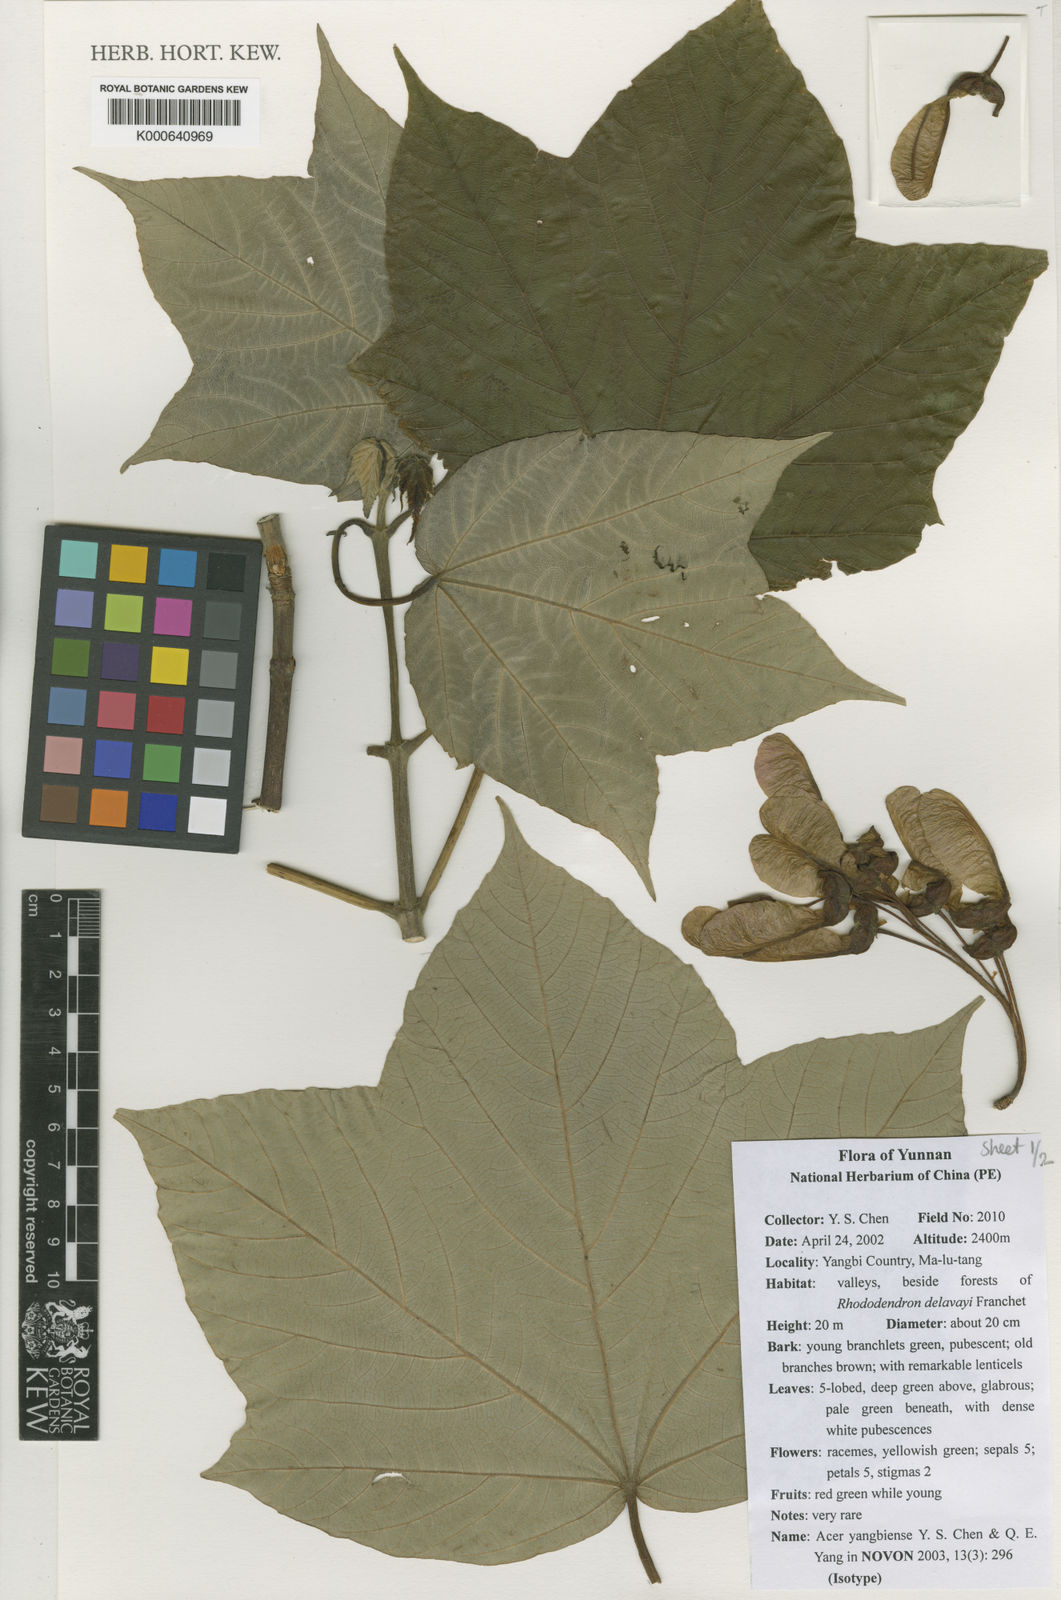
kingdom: Plantae
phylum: Tracheophyta
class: Magnoliopsida
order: Sapindales
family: Sapindaceae
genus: Acer
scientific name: Acer yangbiense
